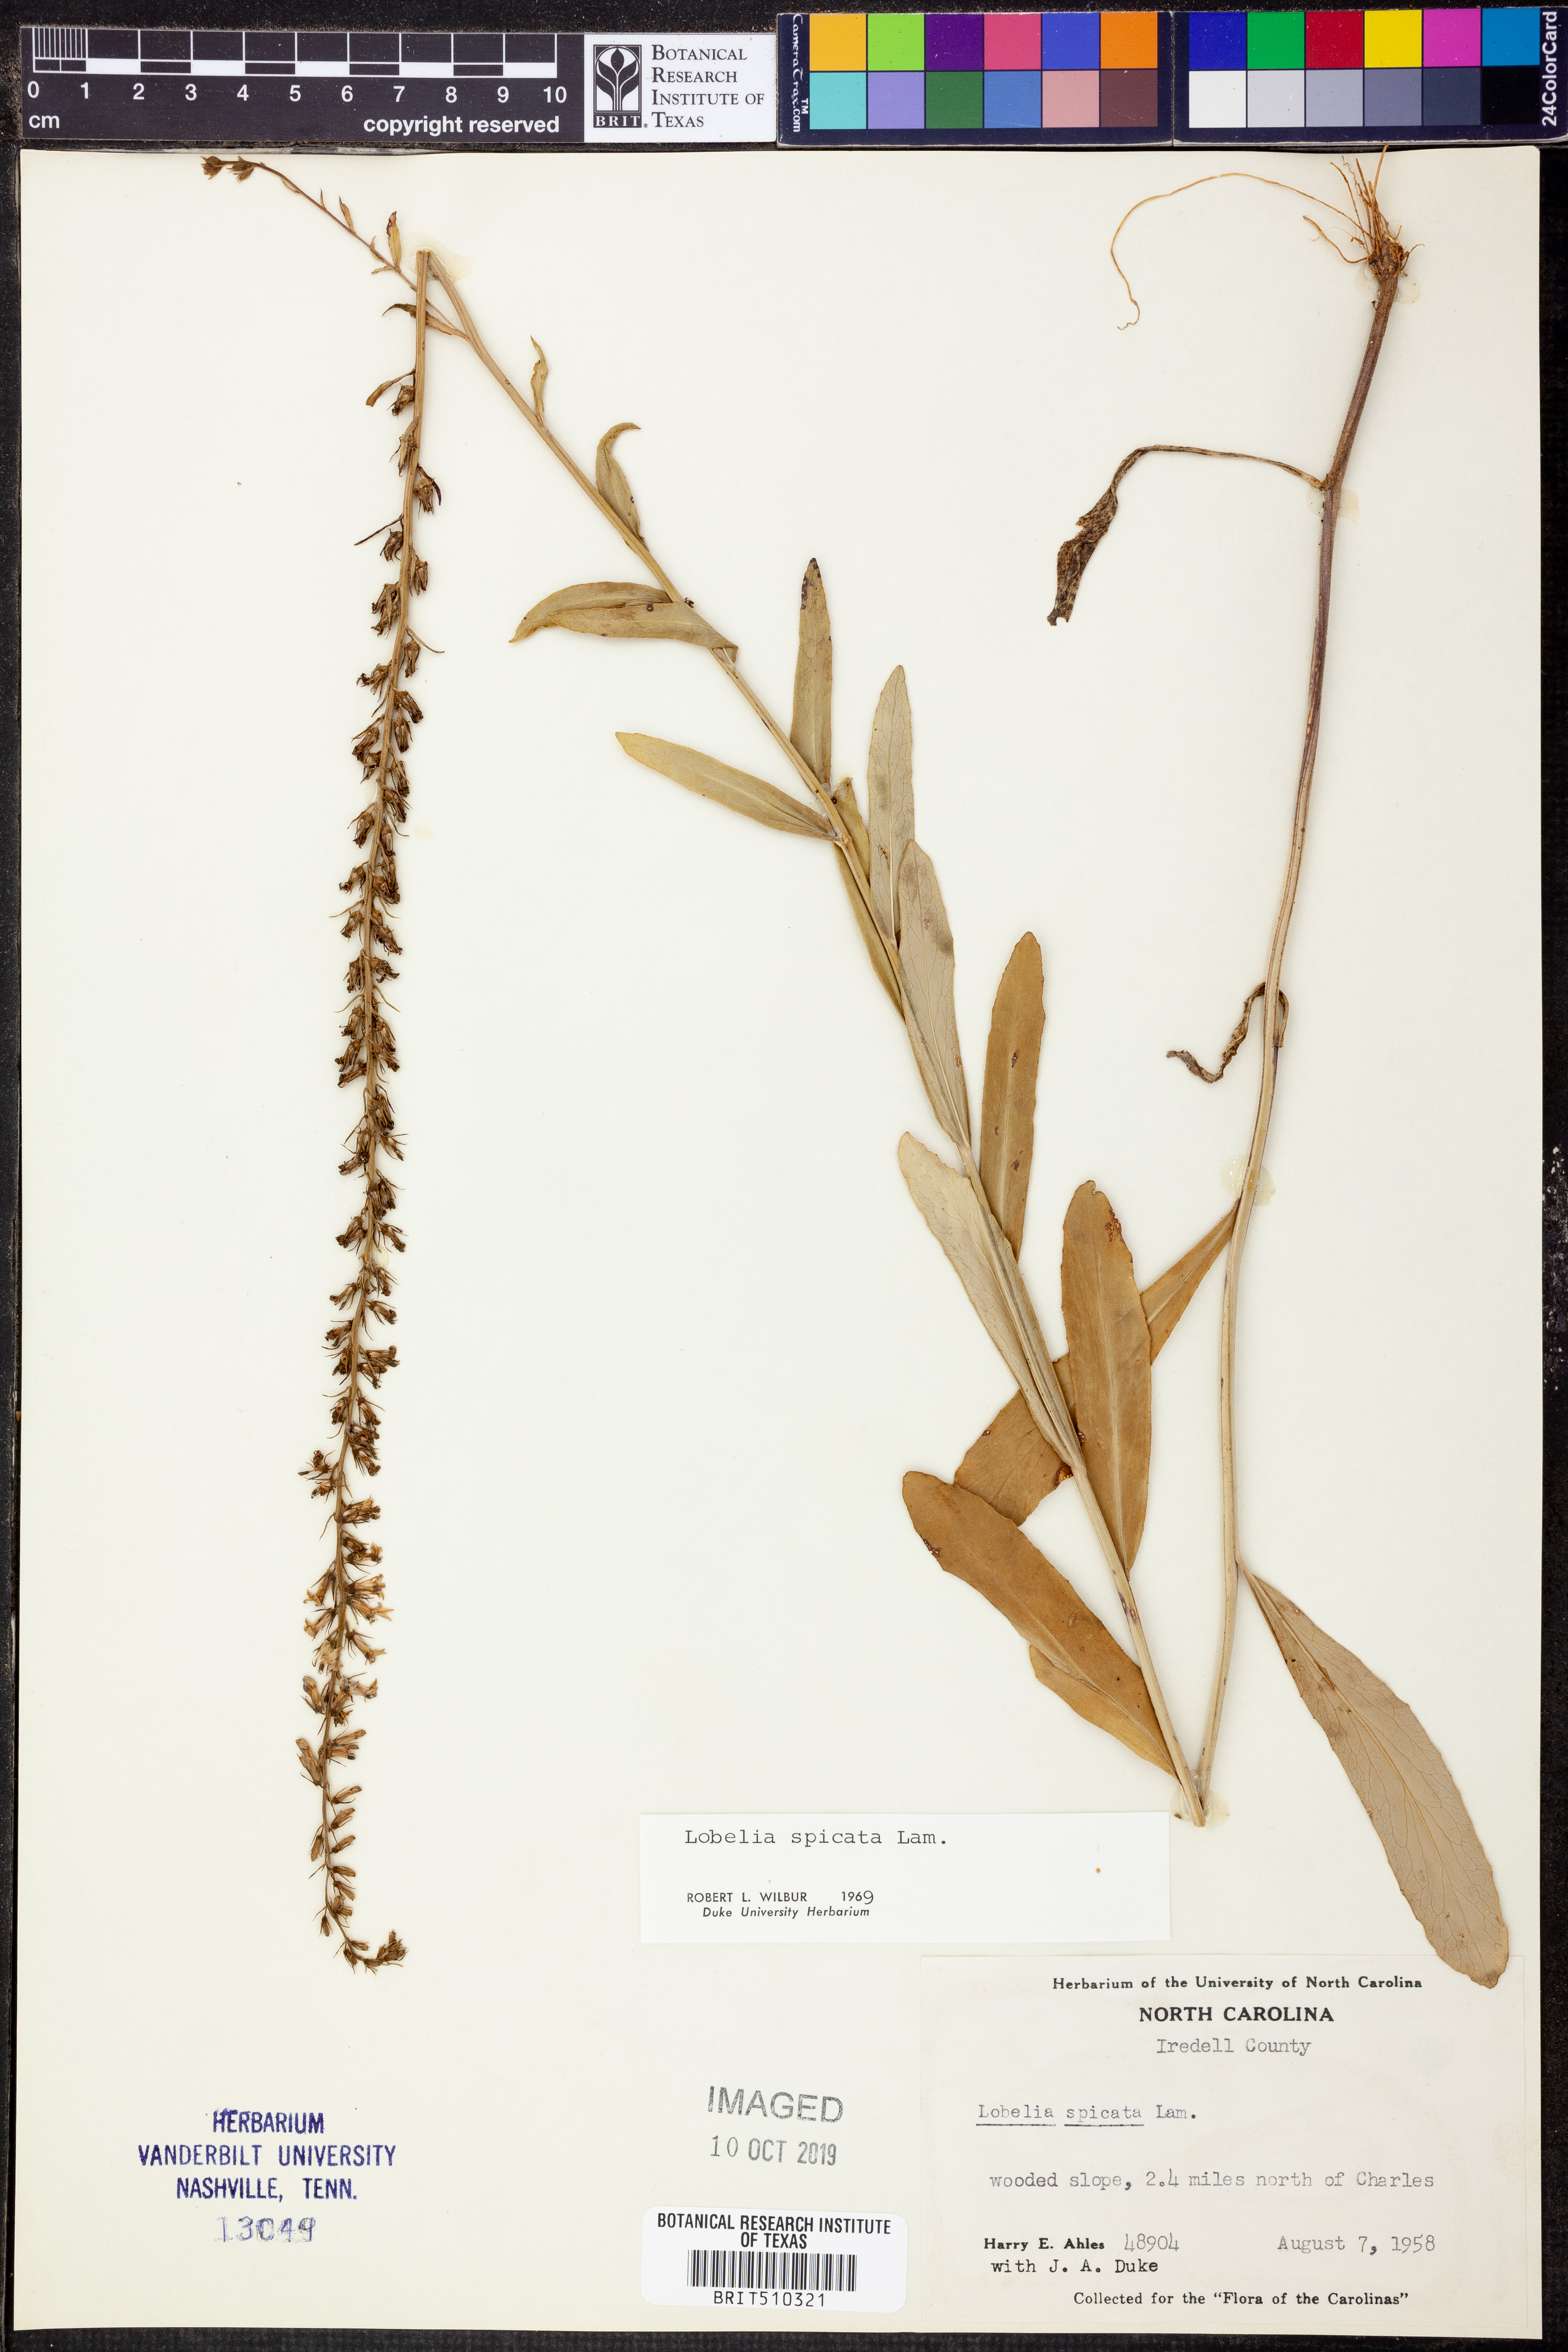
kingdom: Plantae
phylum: Tracheophyta
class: Magnoliopsida
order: Asterales
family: Campanulaceae
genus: Lobelia
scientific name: Lobelia spicata
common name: Pale-spike lobelia
